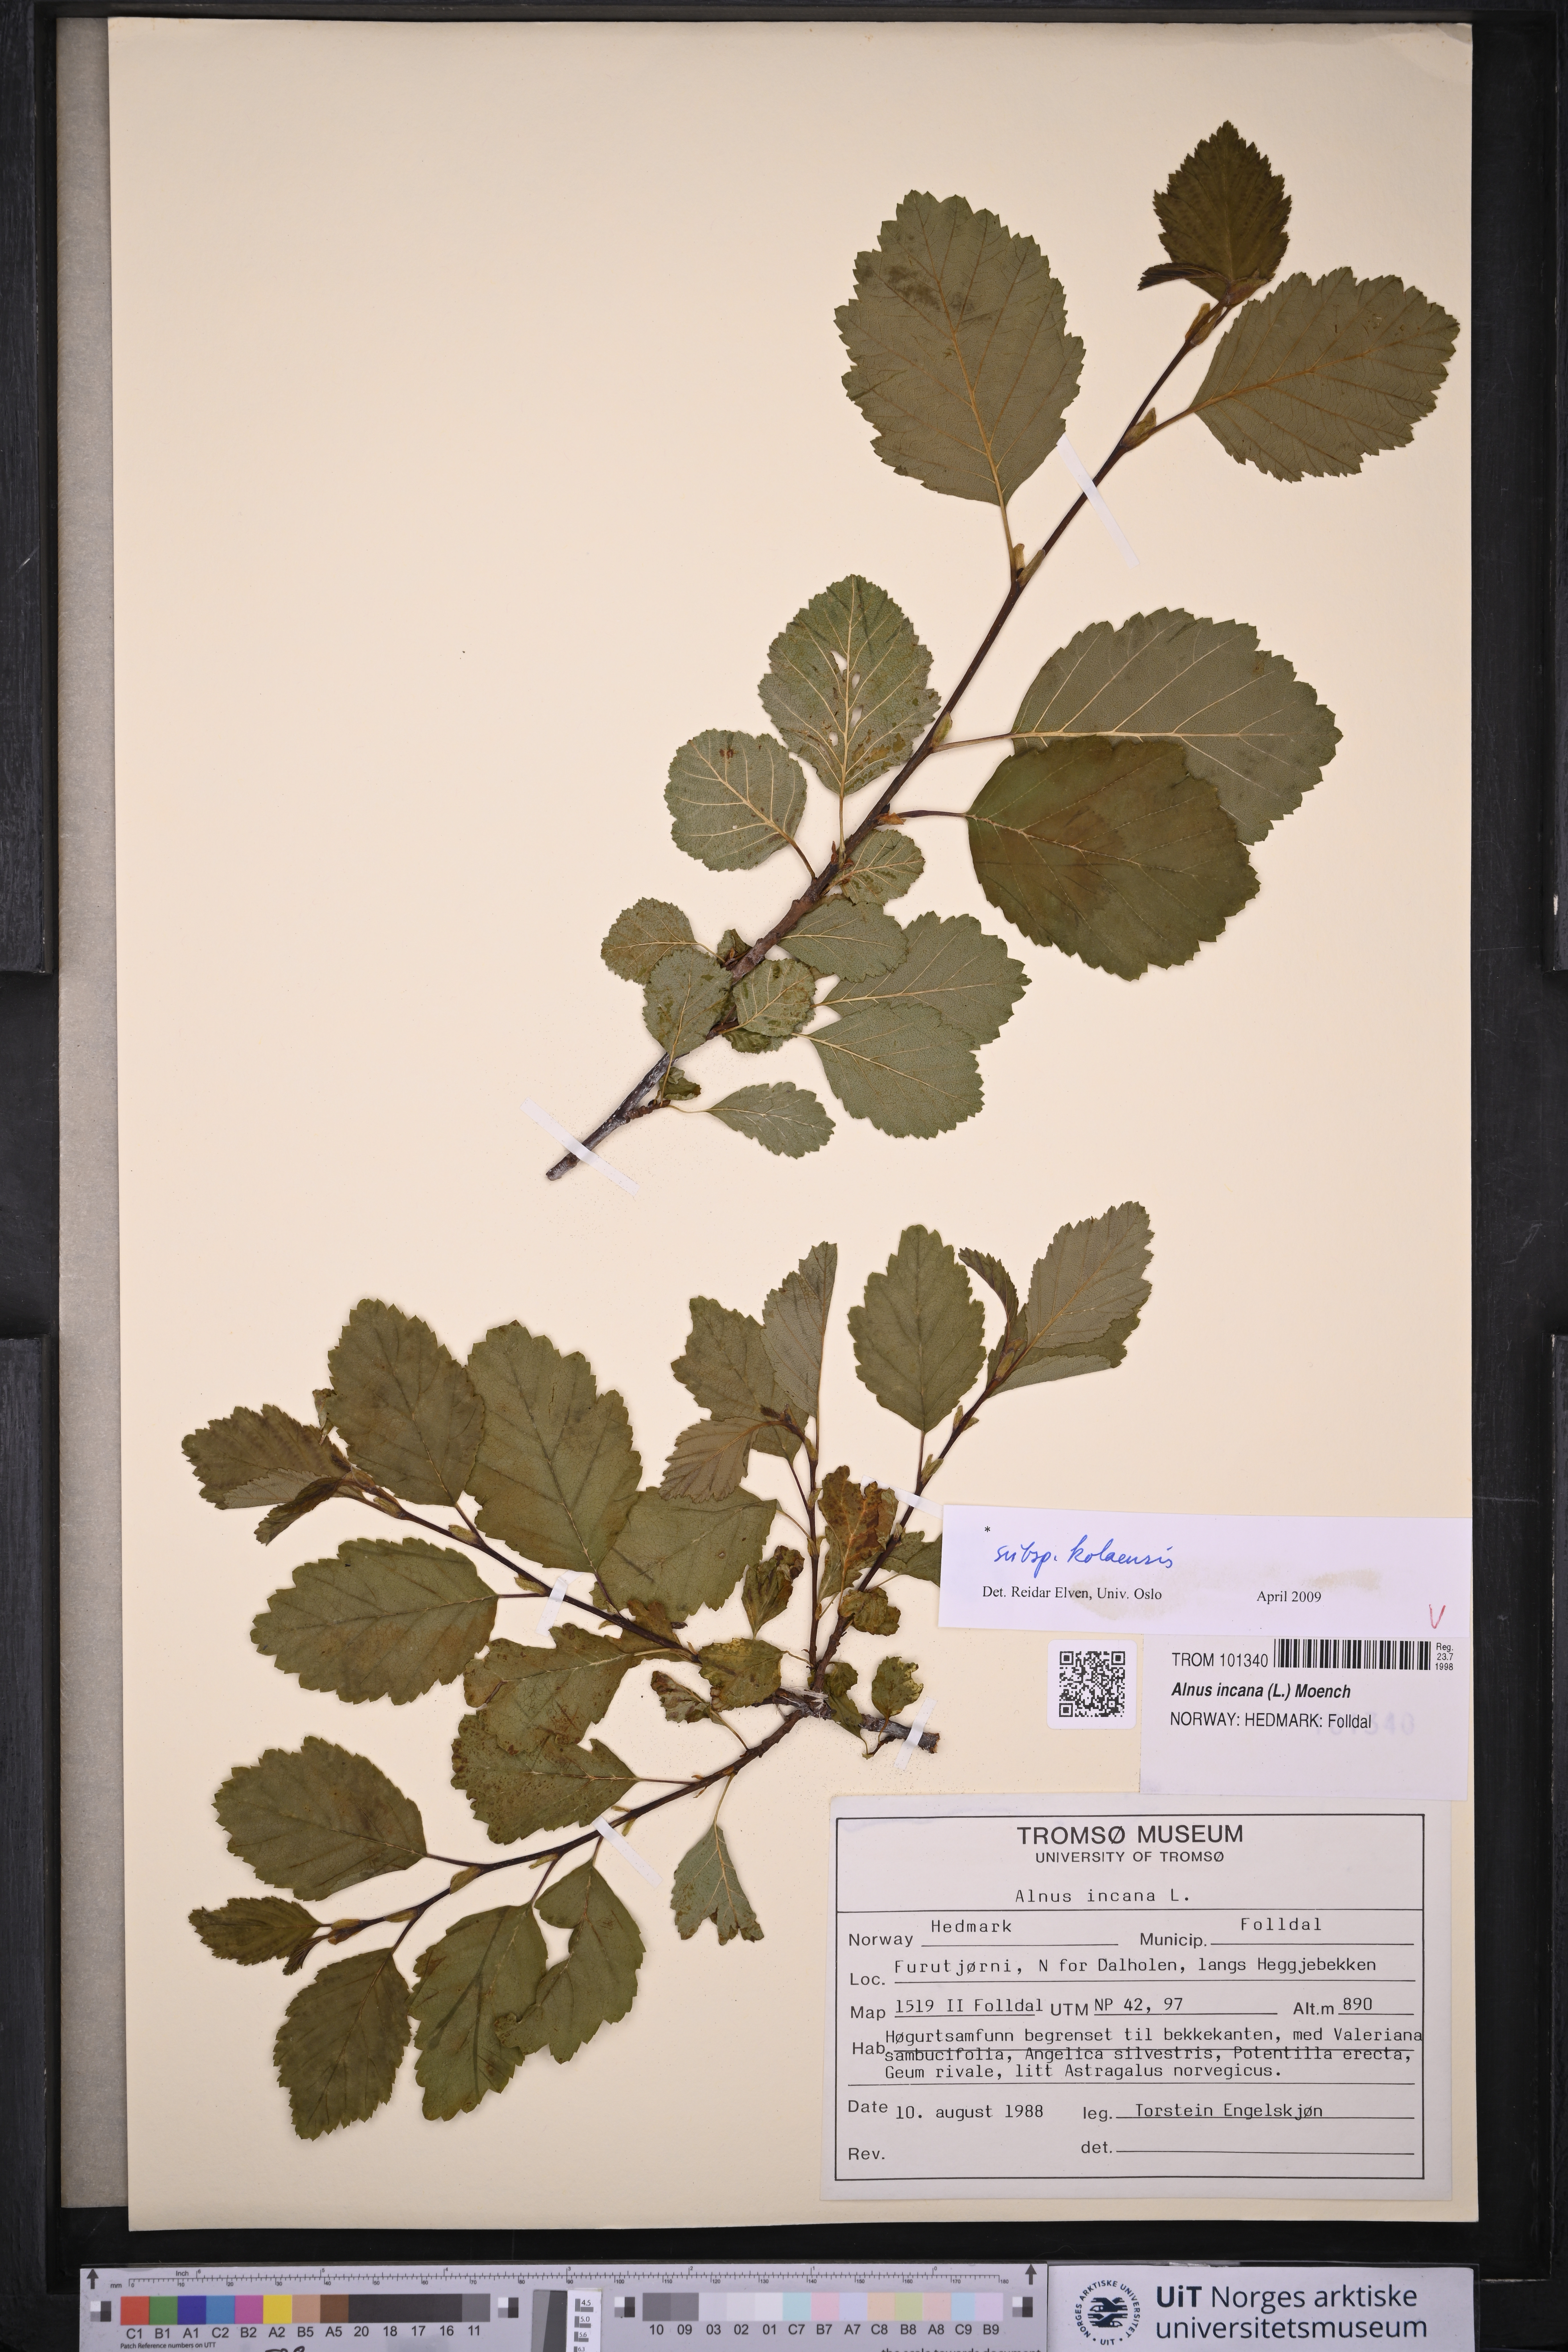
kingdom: Plantae
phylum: Tracheophyta
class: Magnoliopsida
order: Fagales
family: Betulaceae
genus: Alnus
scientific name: Alnus incana
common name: Grey alder
